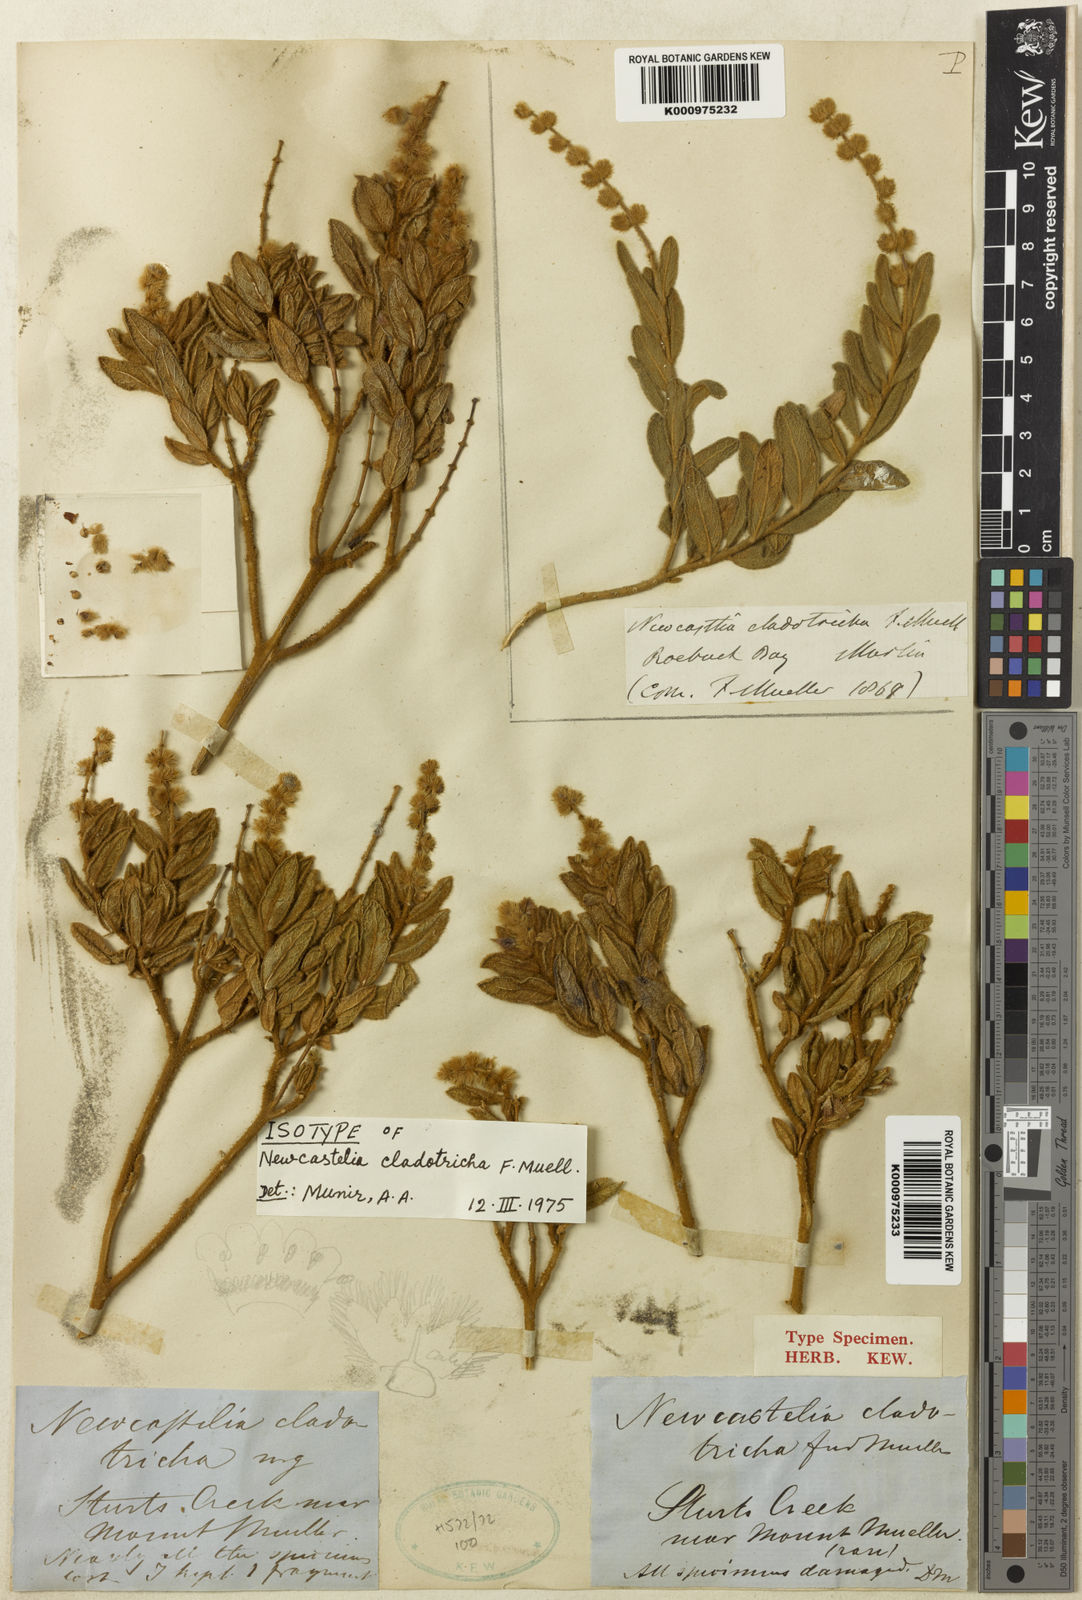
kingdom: Plantae
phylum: Tracheophyta
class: Magnoliopsida
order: Lamiales
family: Lamiaceae
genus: Newcastelia
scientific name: Newcastelia cladotricha
